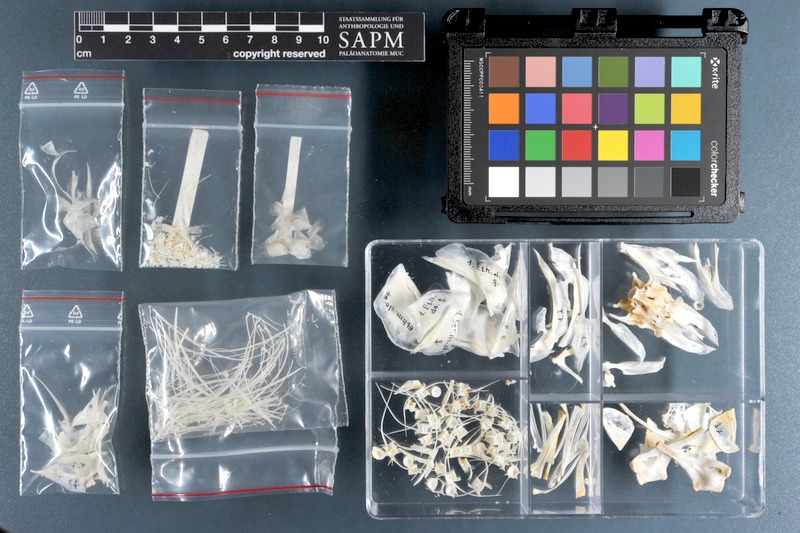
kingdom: Animalia
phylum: Chordata
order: Clupeiformes
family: Clupeidae
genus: Ethmalosa
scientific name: Ethmalosa fimbriata
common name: Bonga
